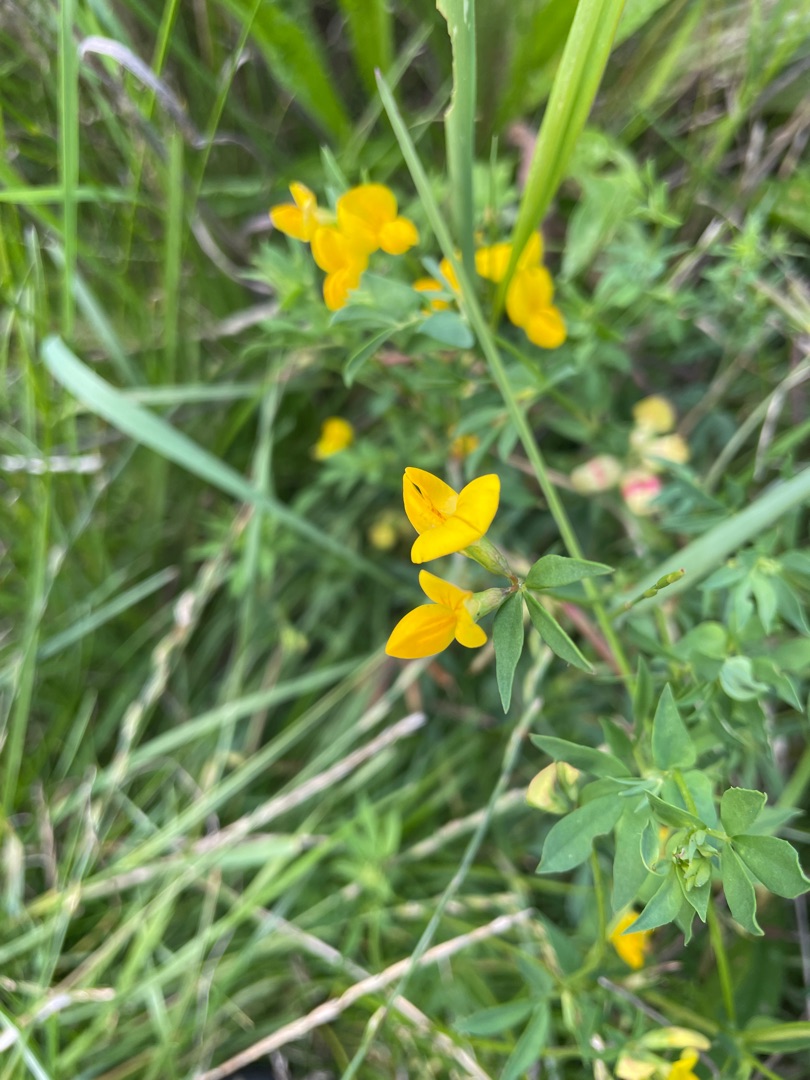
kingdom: Plantae
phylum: Tracheophyta
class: Magnoliopsida
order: Fabales
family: Fabaceae
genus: Lotus
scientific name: Lotus corniculatus
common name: Almindelig kællingetand
